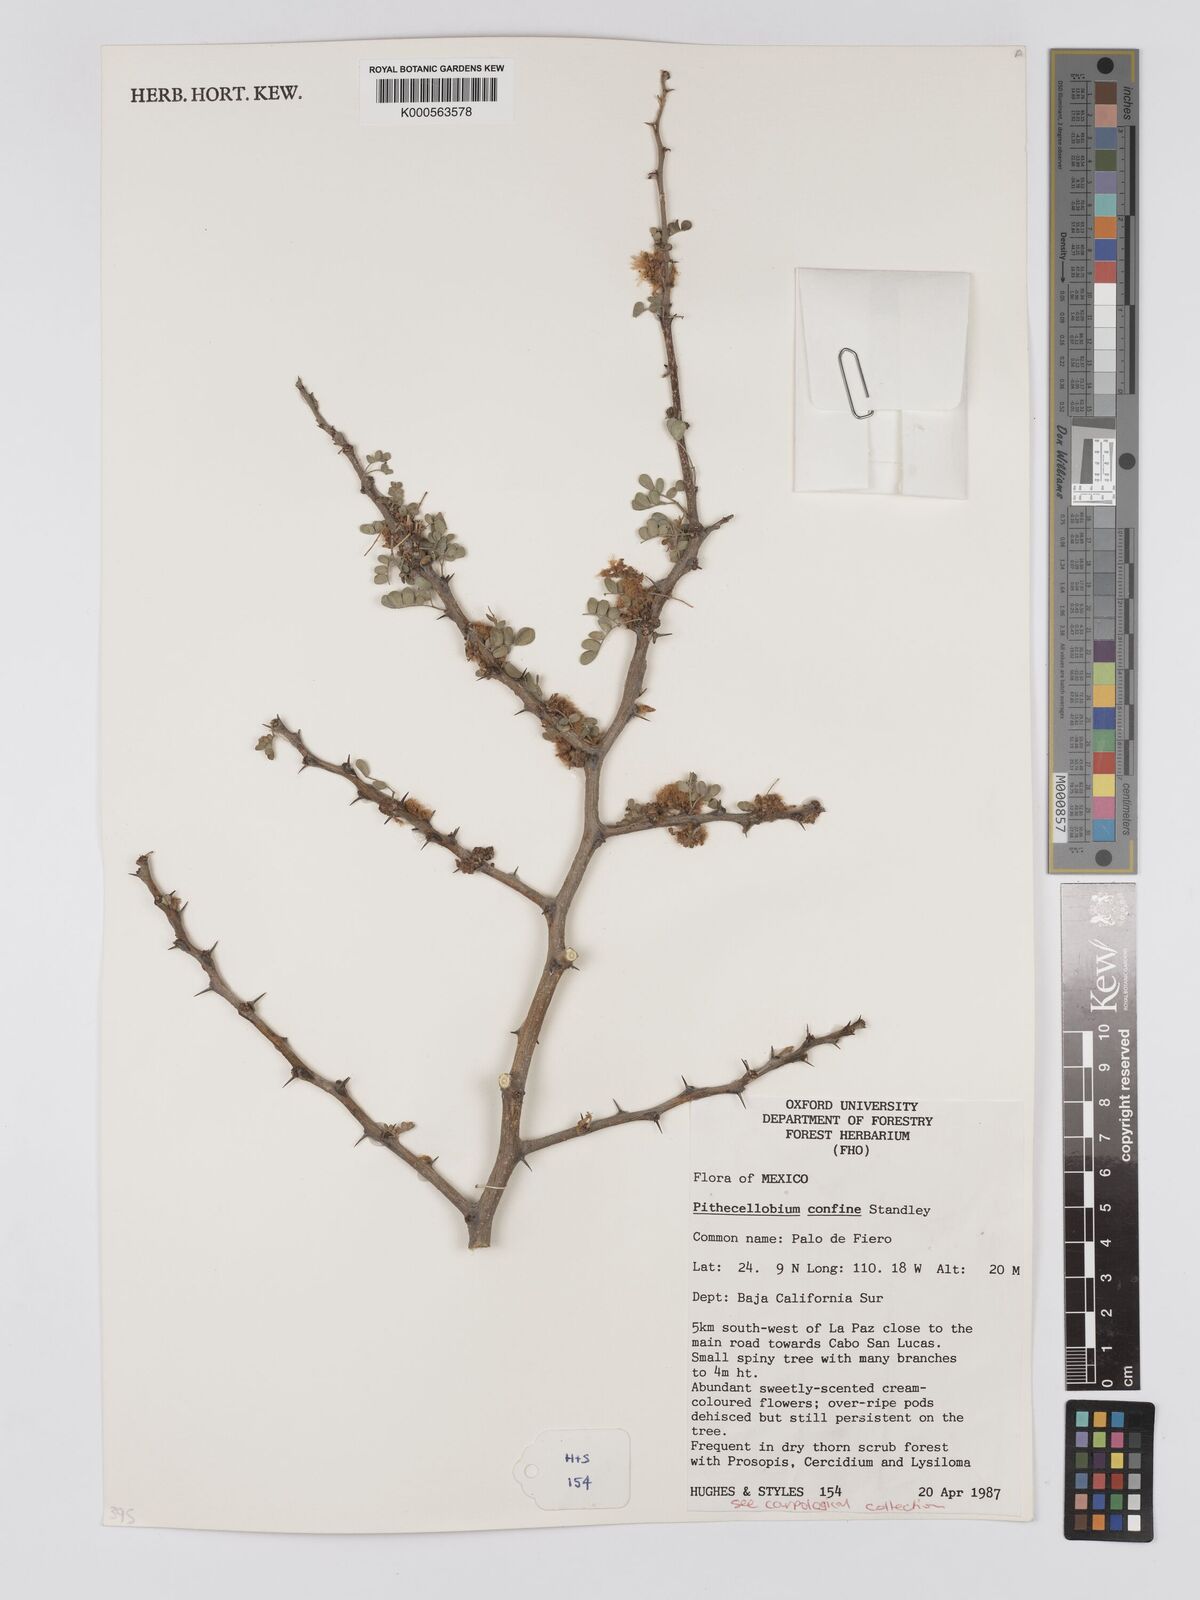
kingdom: Plantae
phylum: Tracheophyta
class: Magnoliopsida
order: Fabales
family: Fabaceae
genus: Chloroleucon
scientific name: Chloroleucon
